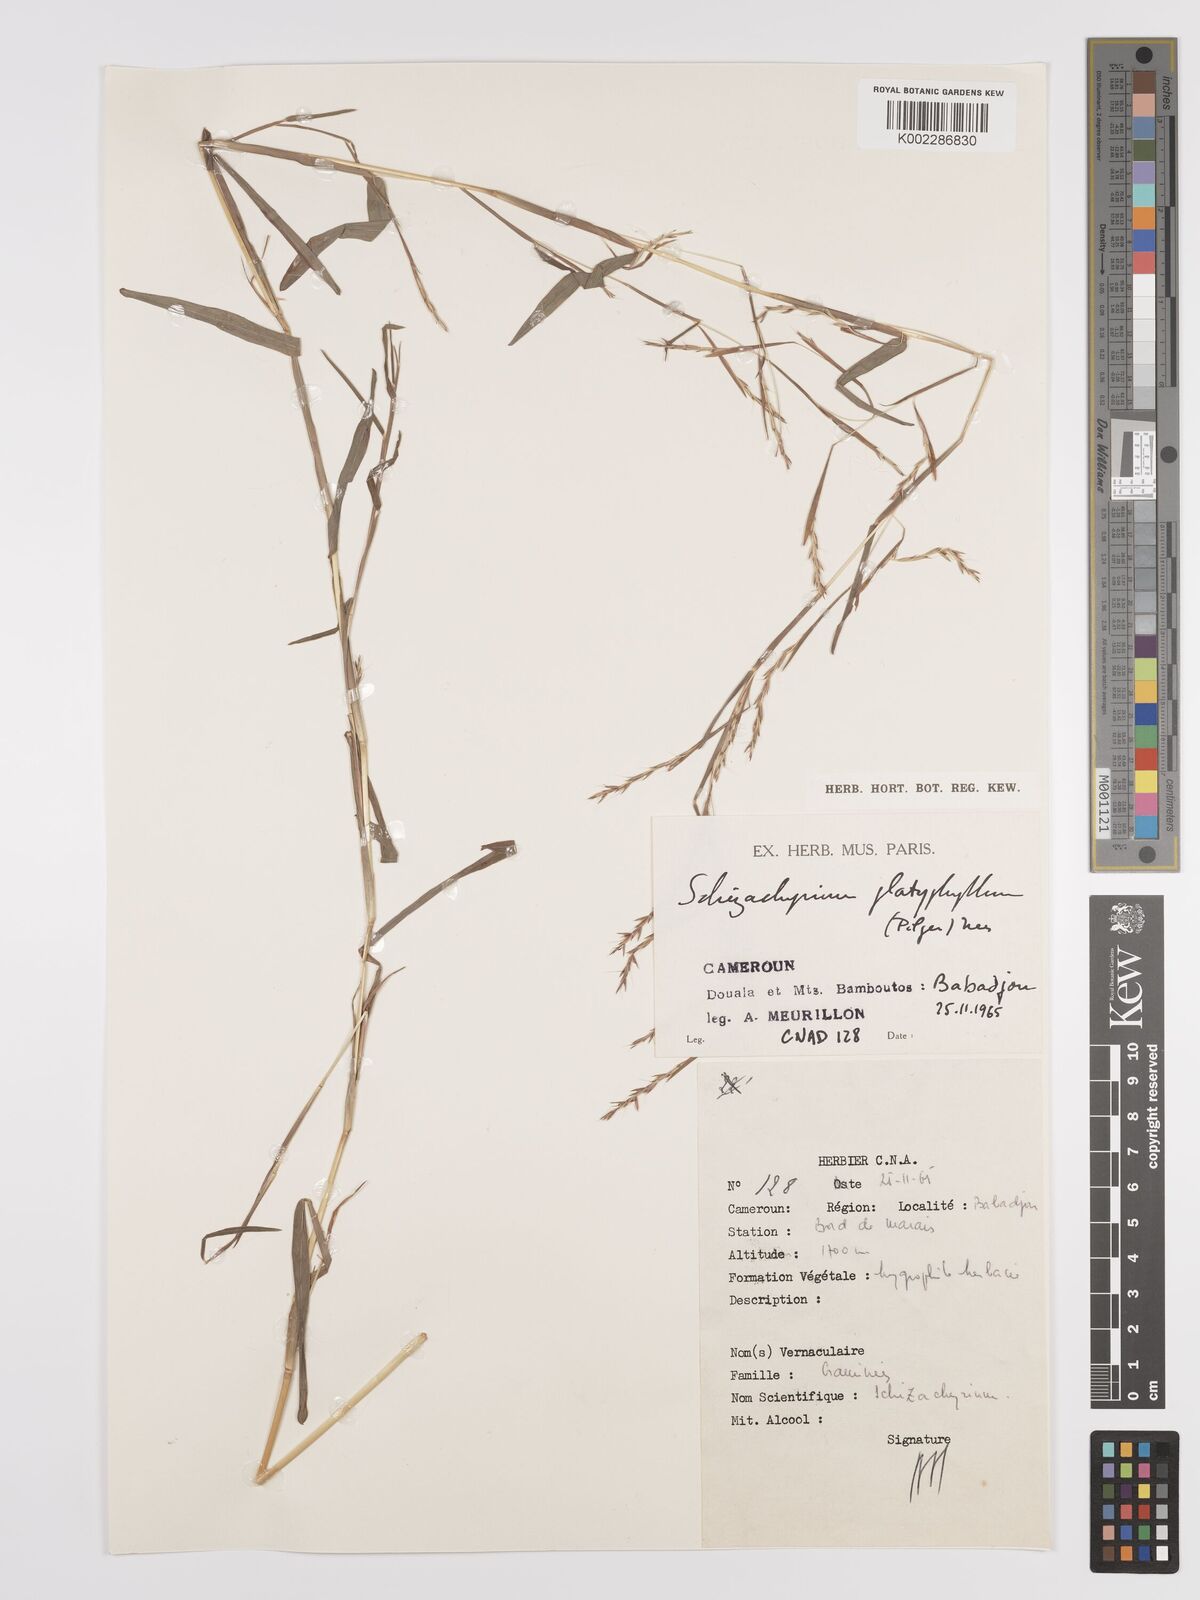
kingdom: Plantae
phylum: Tracheophyta
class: Liliopsida
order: Poales
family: Poaceae
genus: Schizachyrium
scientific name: Schizachyrium platyphyllum
